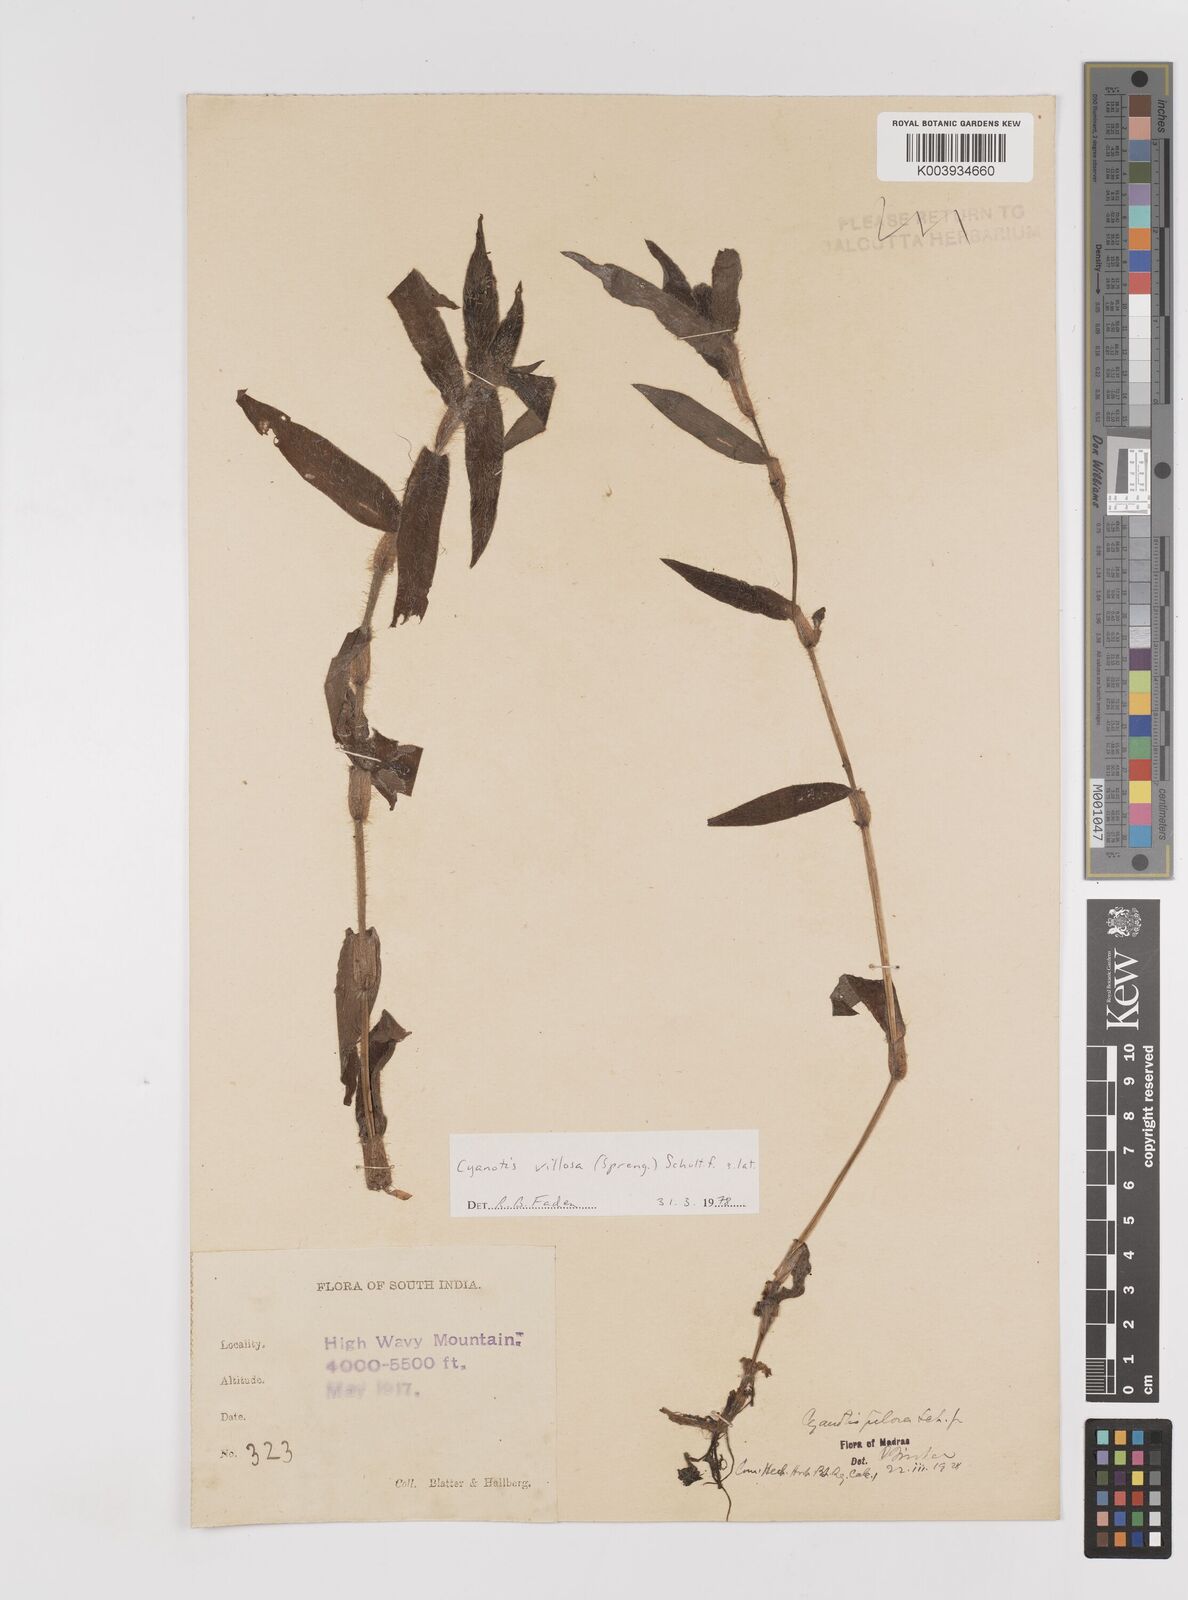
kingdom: Plantae
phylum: Tracheophyta
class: Liliopsida
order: Commelinales
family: Commelinaceae
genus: Cyanotis
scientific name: Cyanotis villosa
